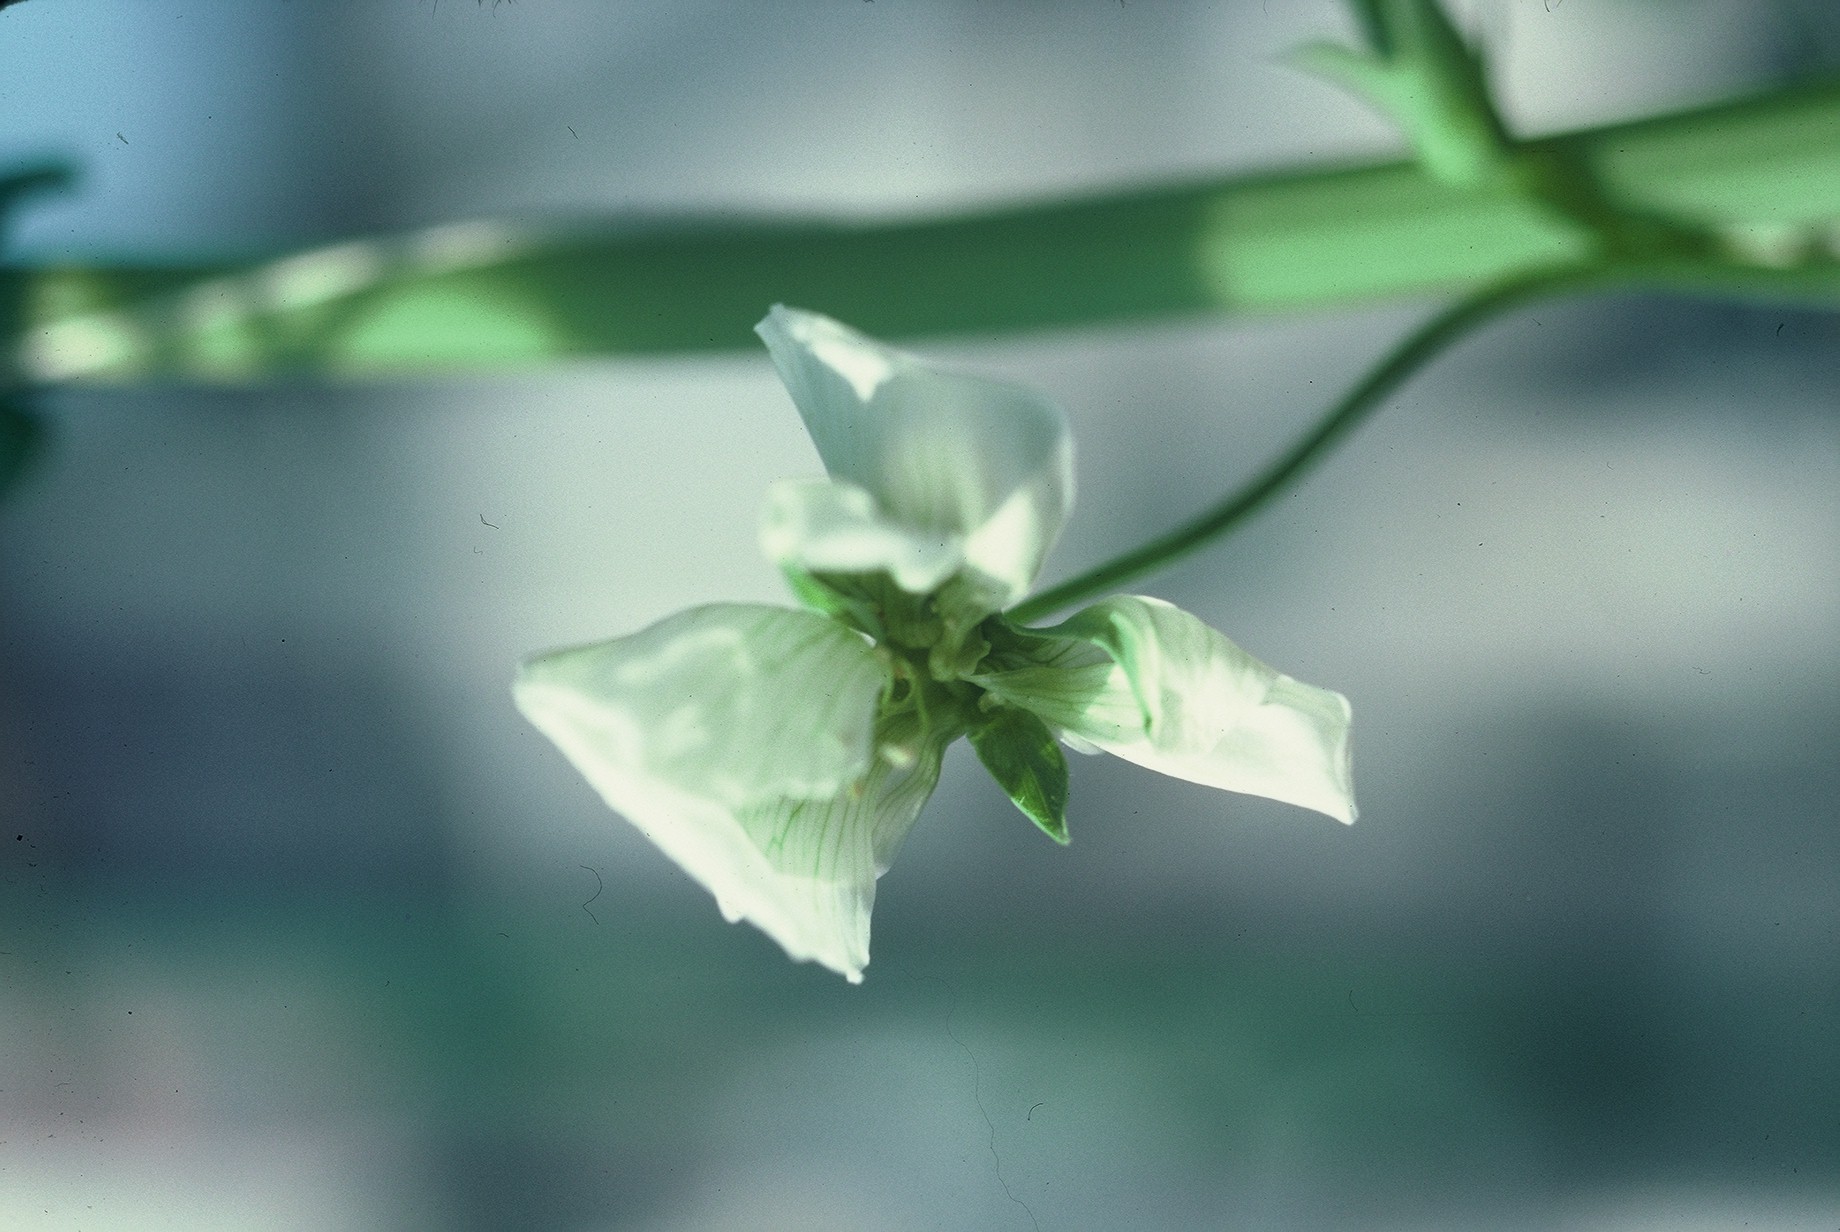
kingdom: Plantae
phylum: Tracheophyta
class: Magnoliopsida
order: Fabales
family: Fabaceae
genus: Lathyrus
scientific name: Lathyrus oleraceus
